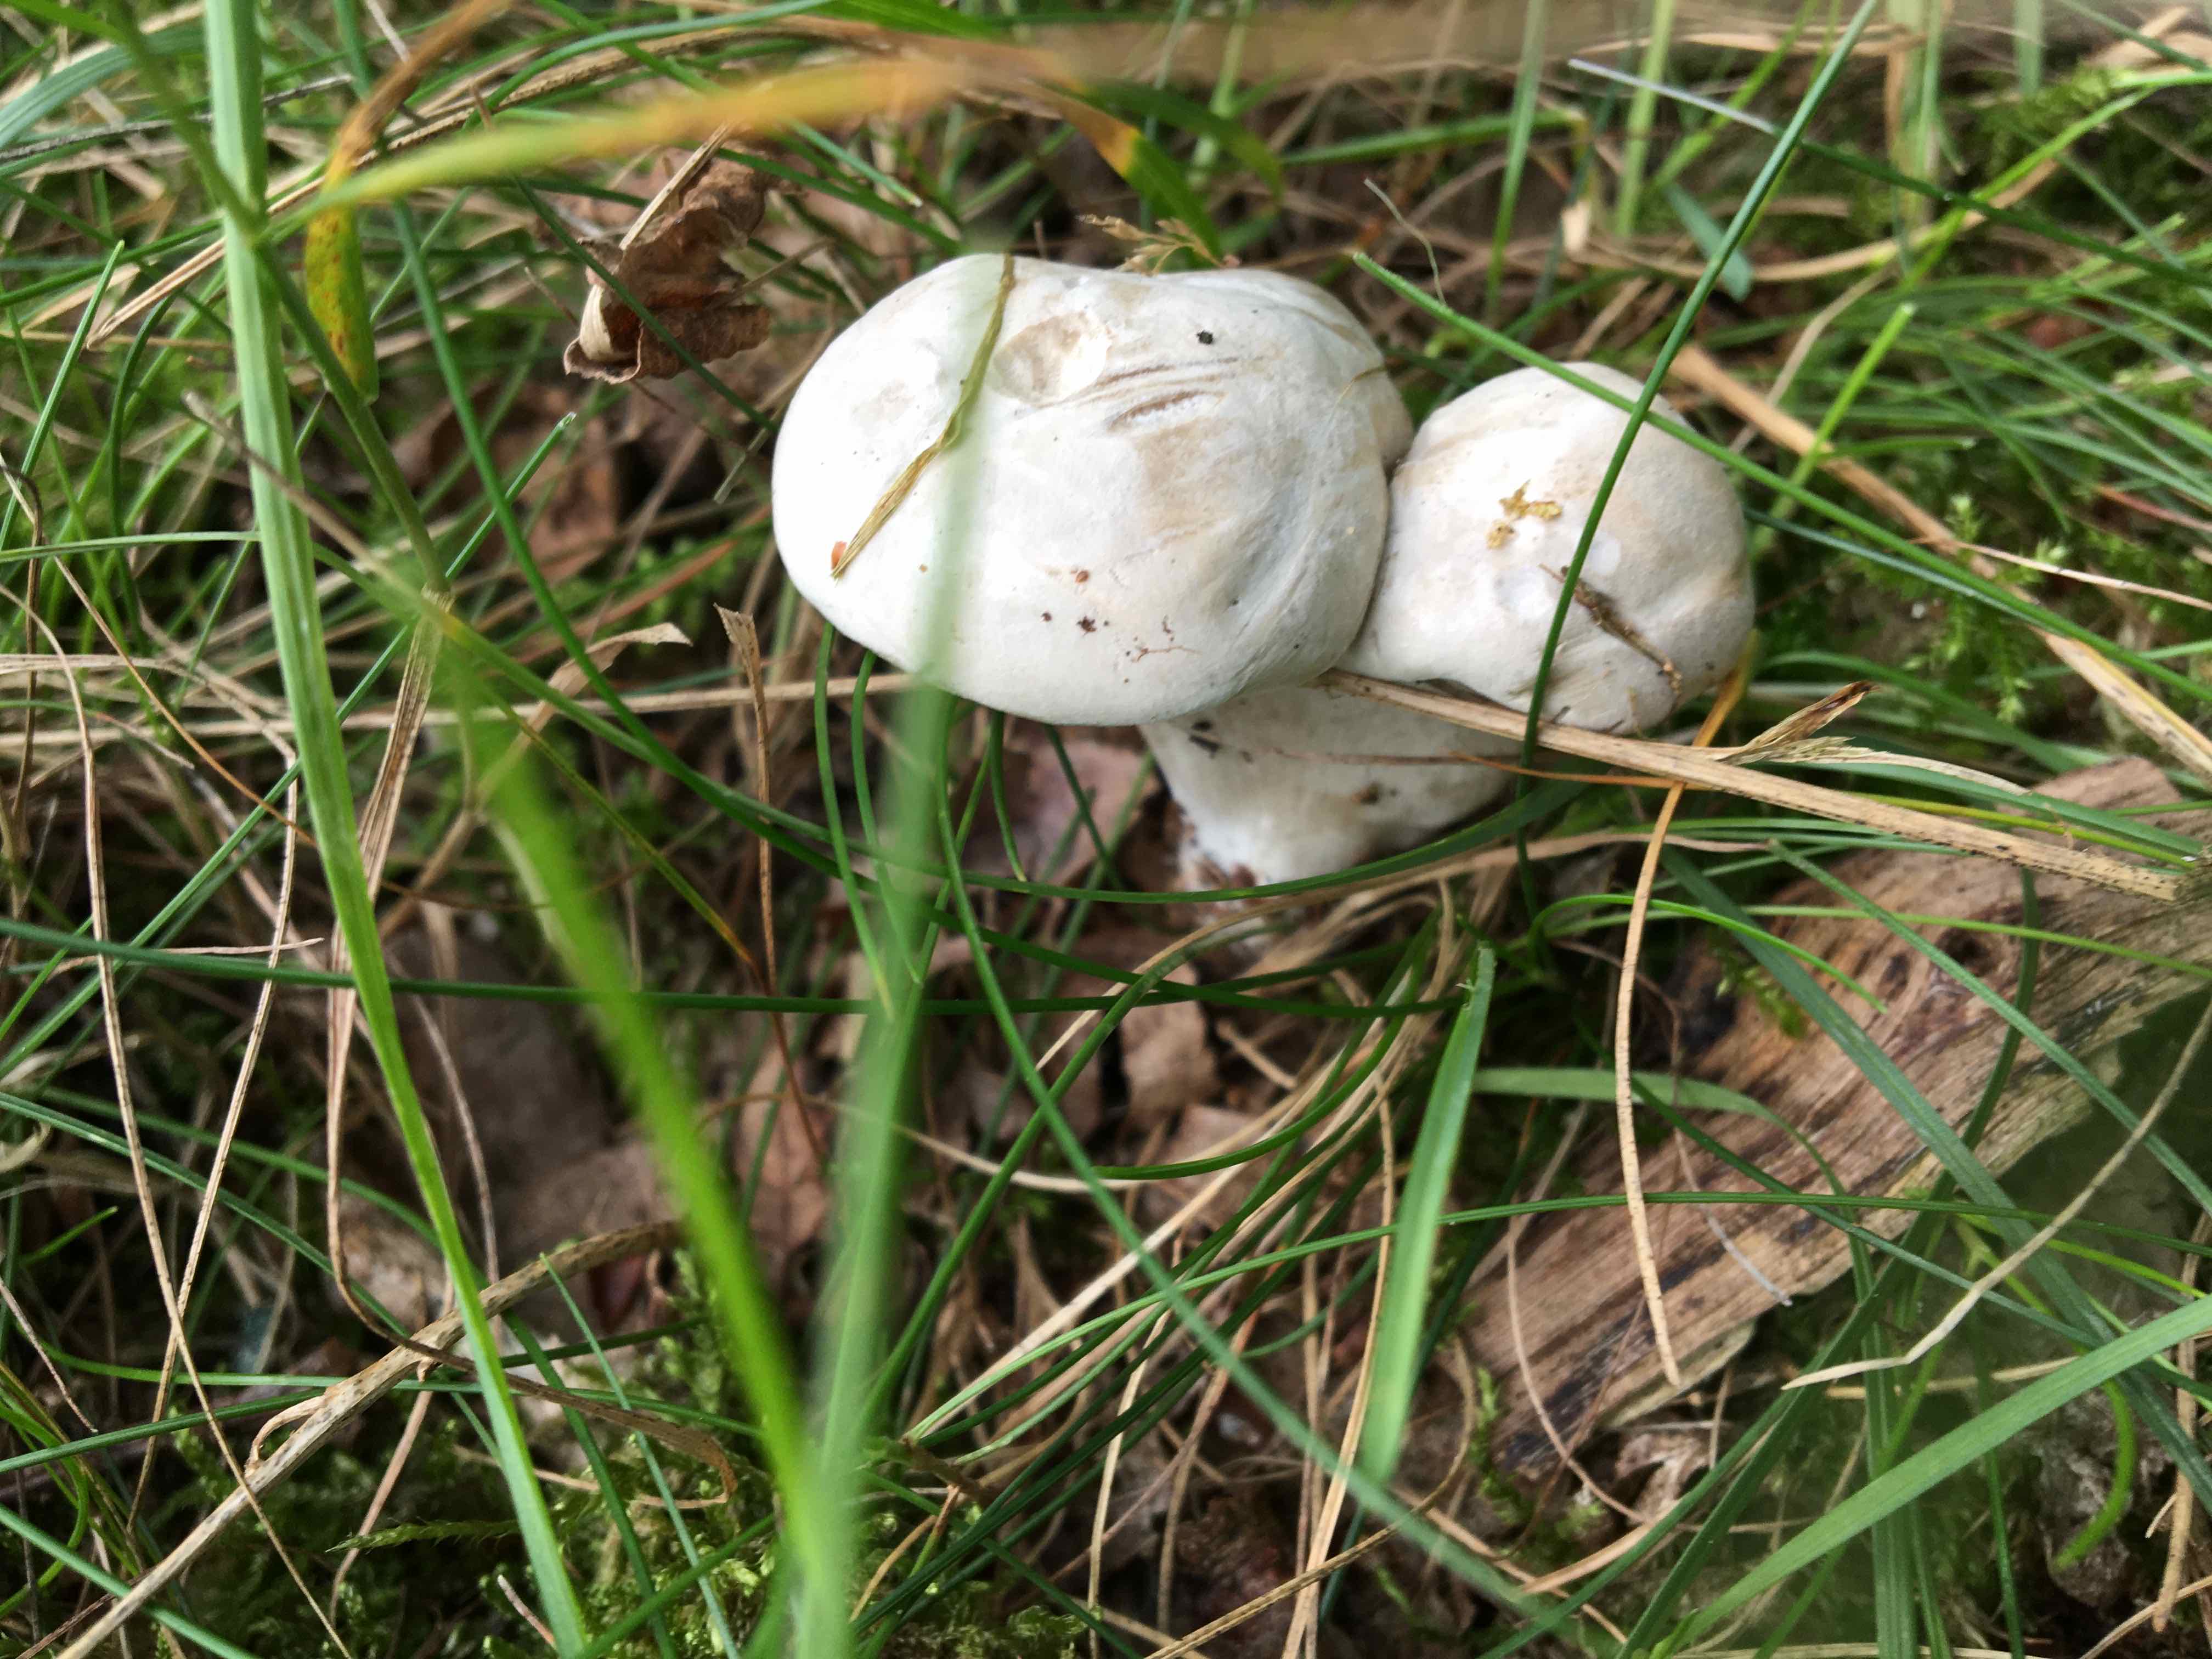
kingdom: Fungi
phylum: Basidiomycota
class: Agaricomycetes
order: Agaricales
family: Entolomataceae
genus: Clitopilus
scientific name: Clitopilus prunulus
